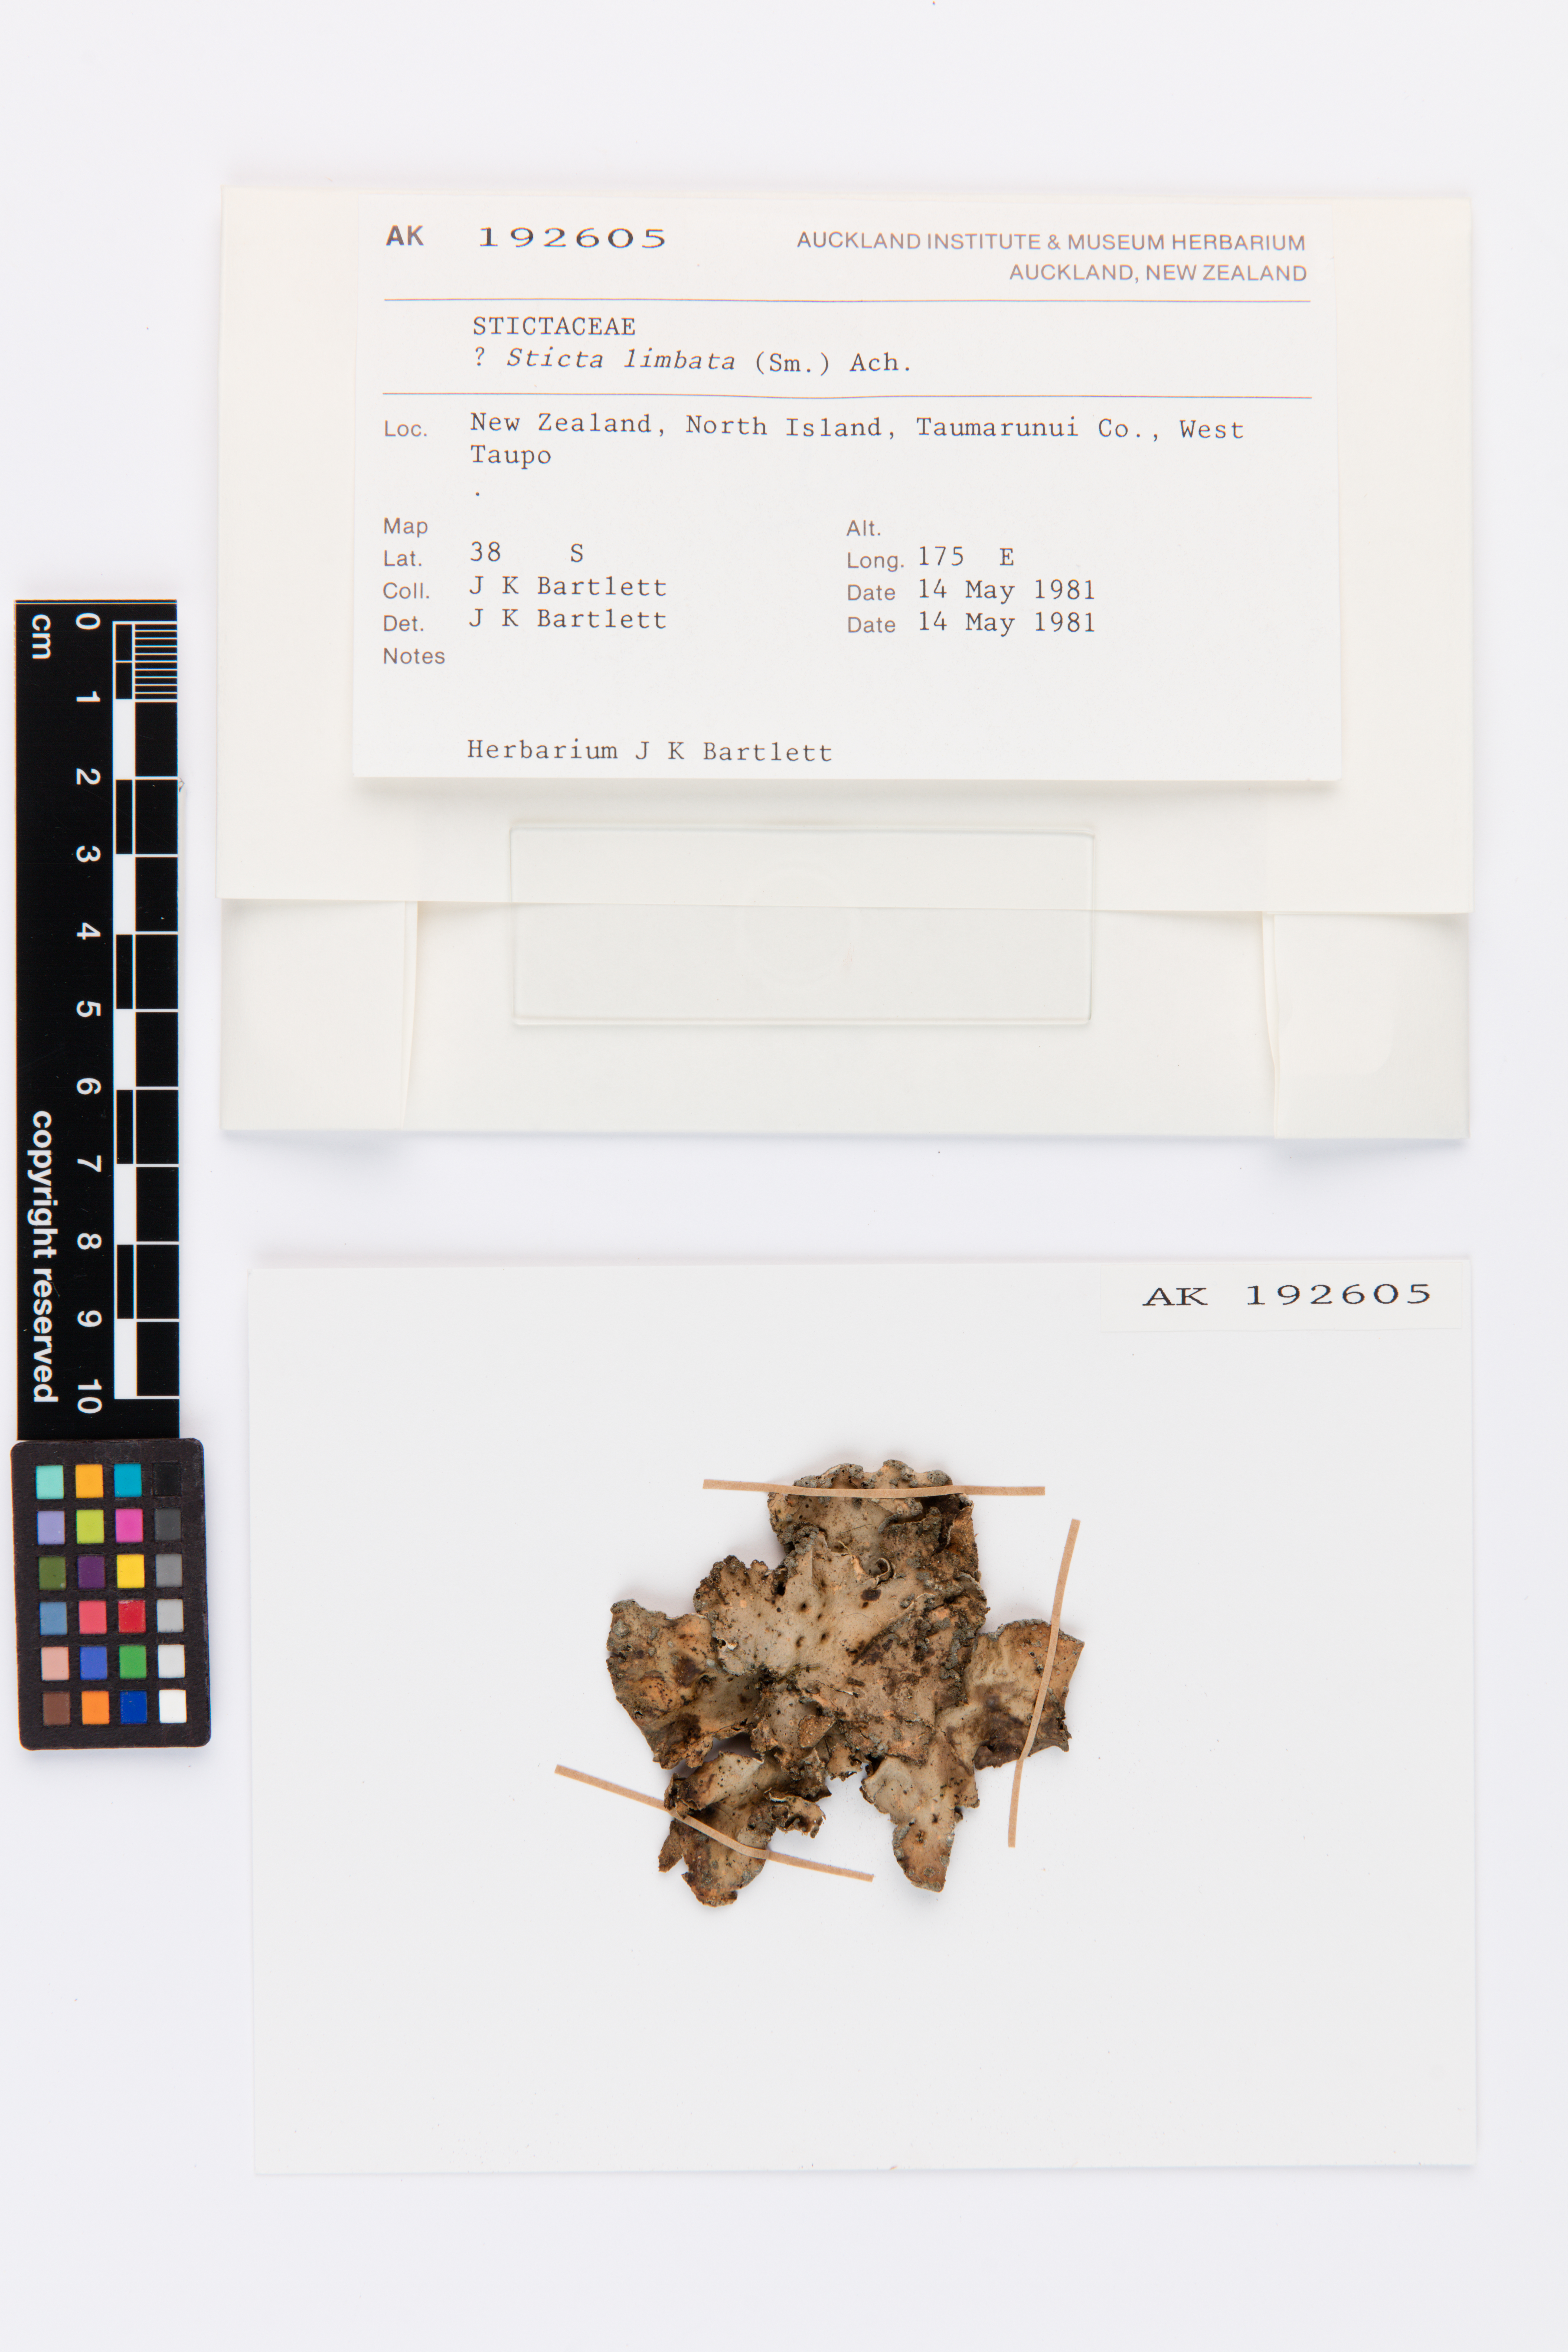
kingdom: Fungi
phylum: Ascomycota
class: Lecanoromycetes
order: Peltigerales
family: Lobariaceae
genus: Sticta
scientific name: Sticta limbata
